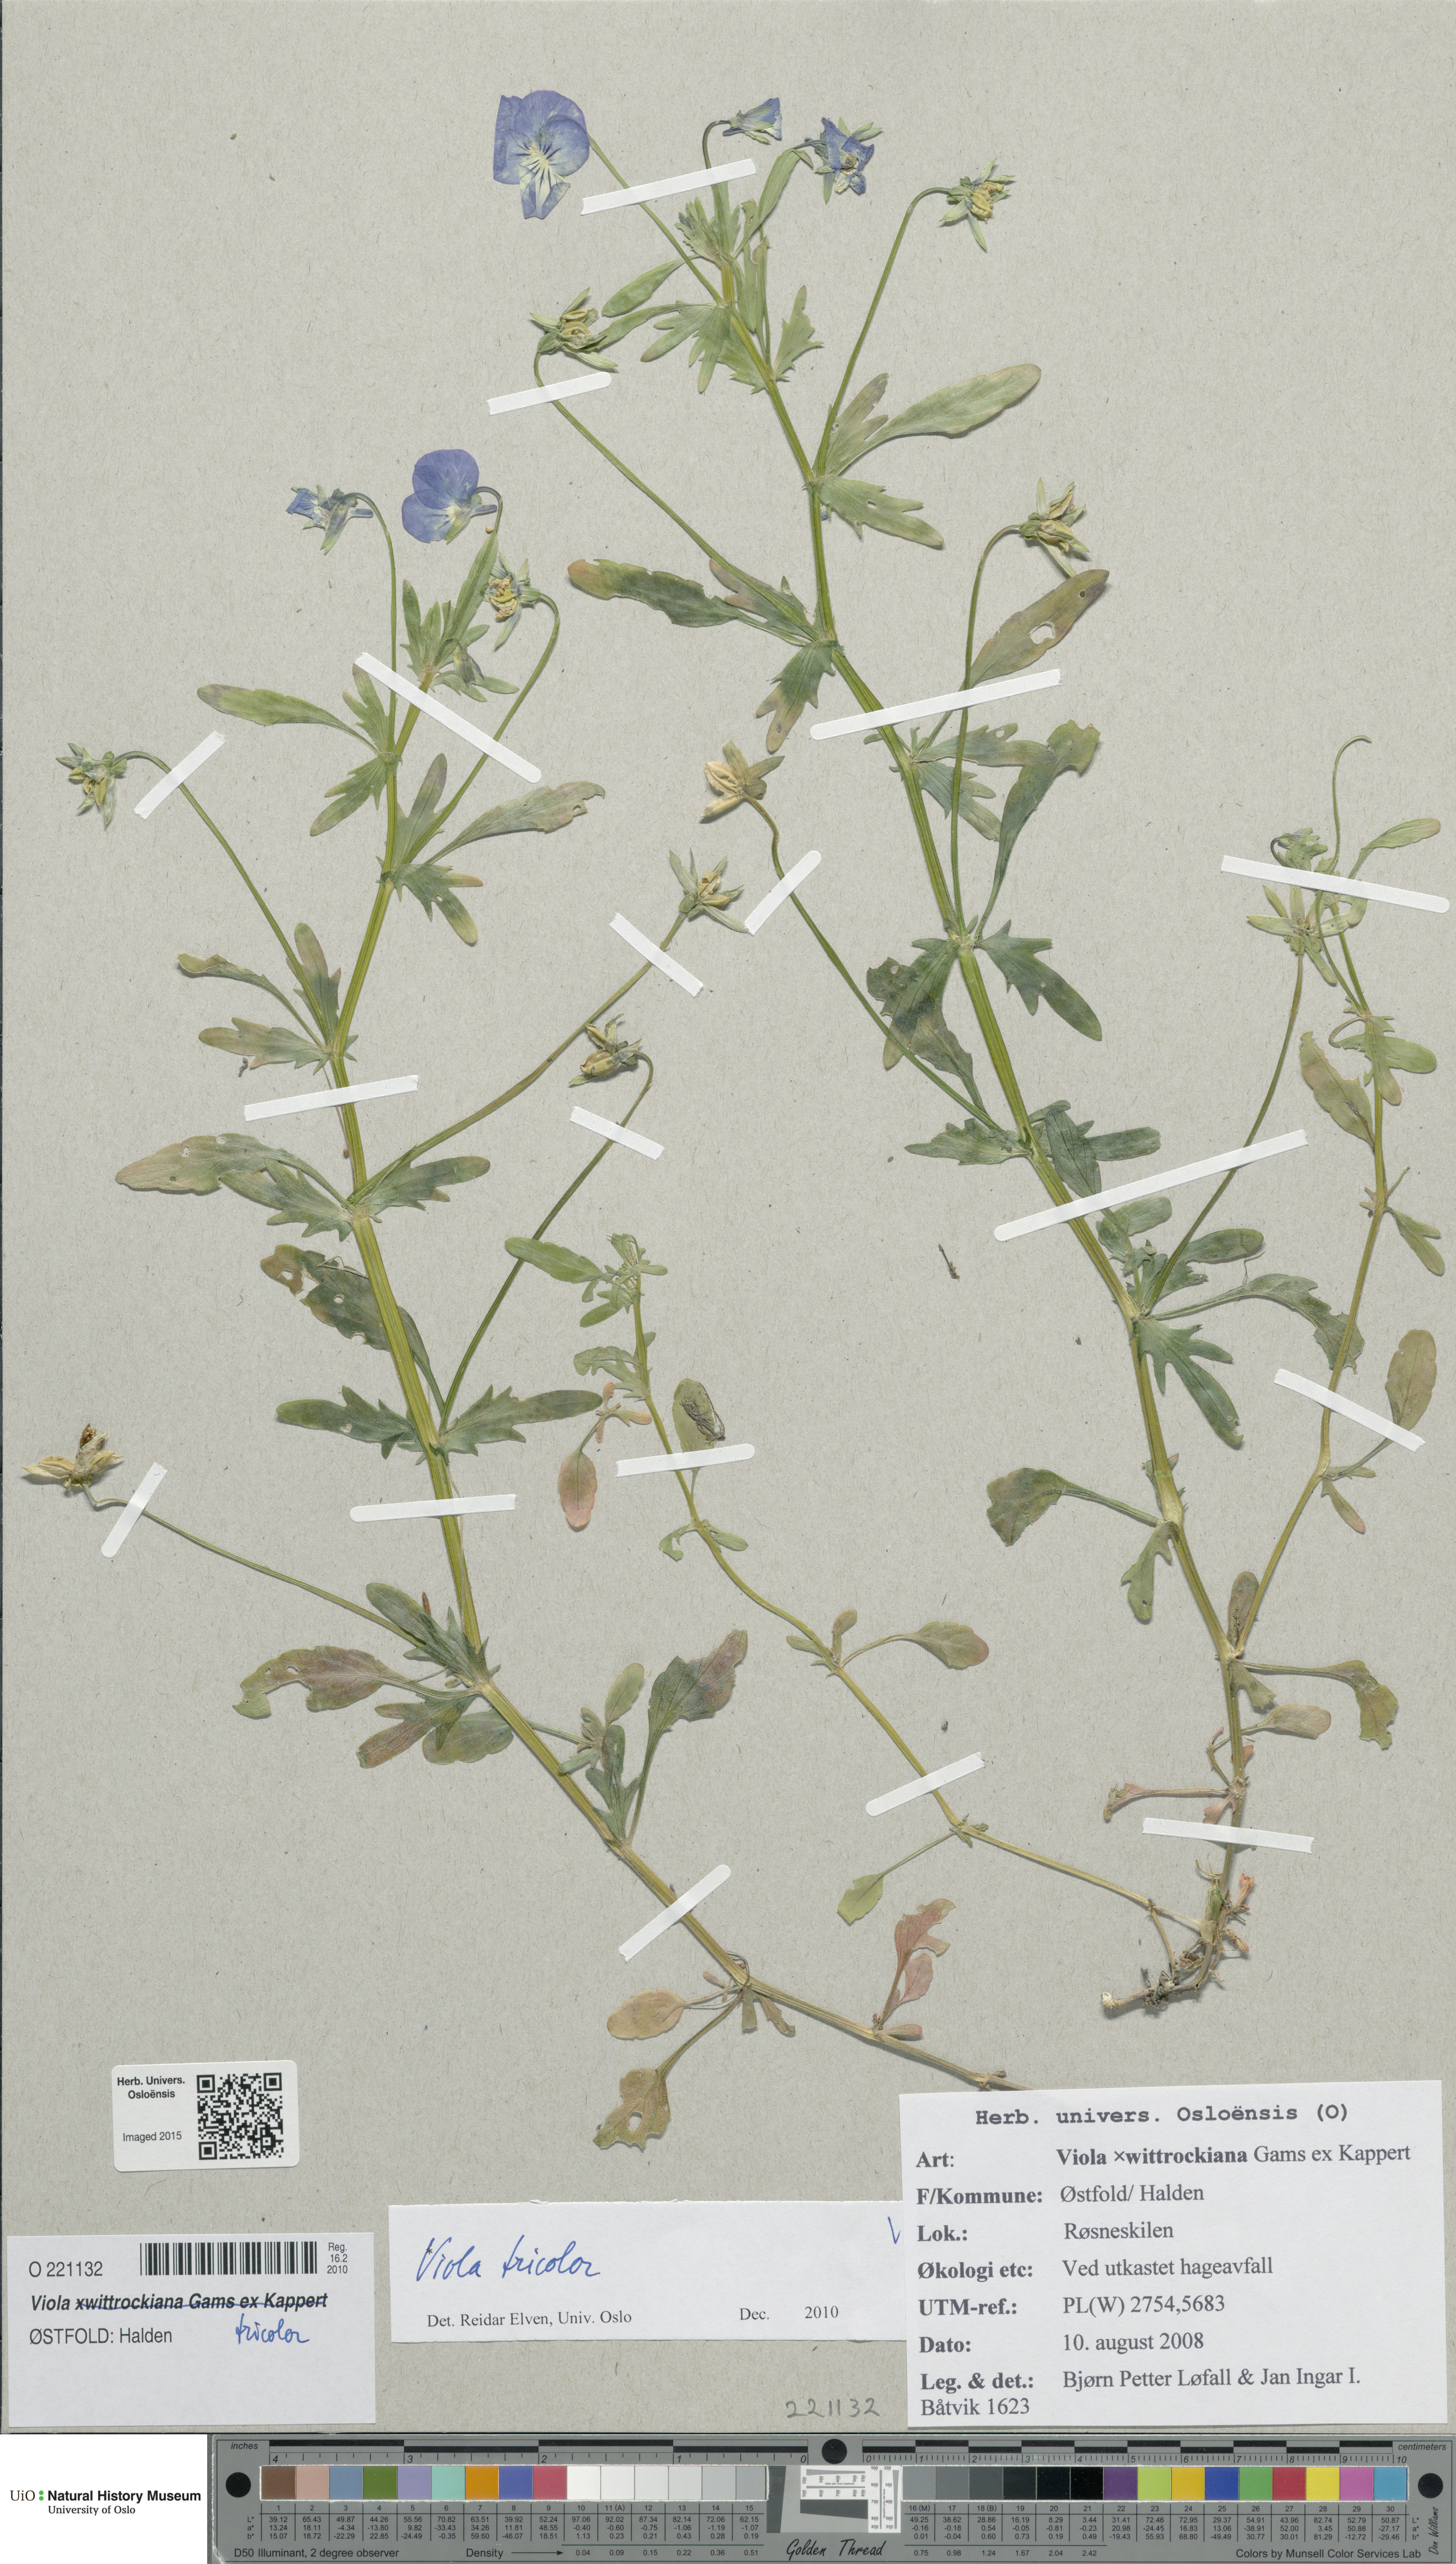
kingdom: Plantae
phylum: Tracheophyta
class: Magnoliopsida
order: Malpighiales
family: Violaceae
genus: Viola
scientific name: Viola tricolor
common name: Pansy
